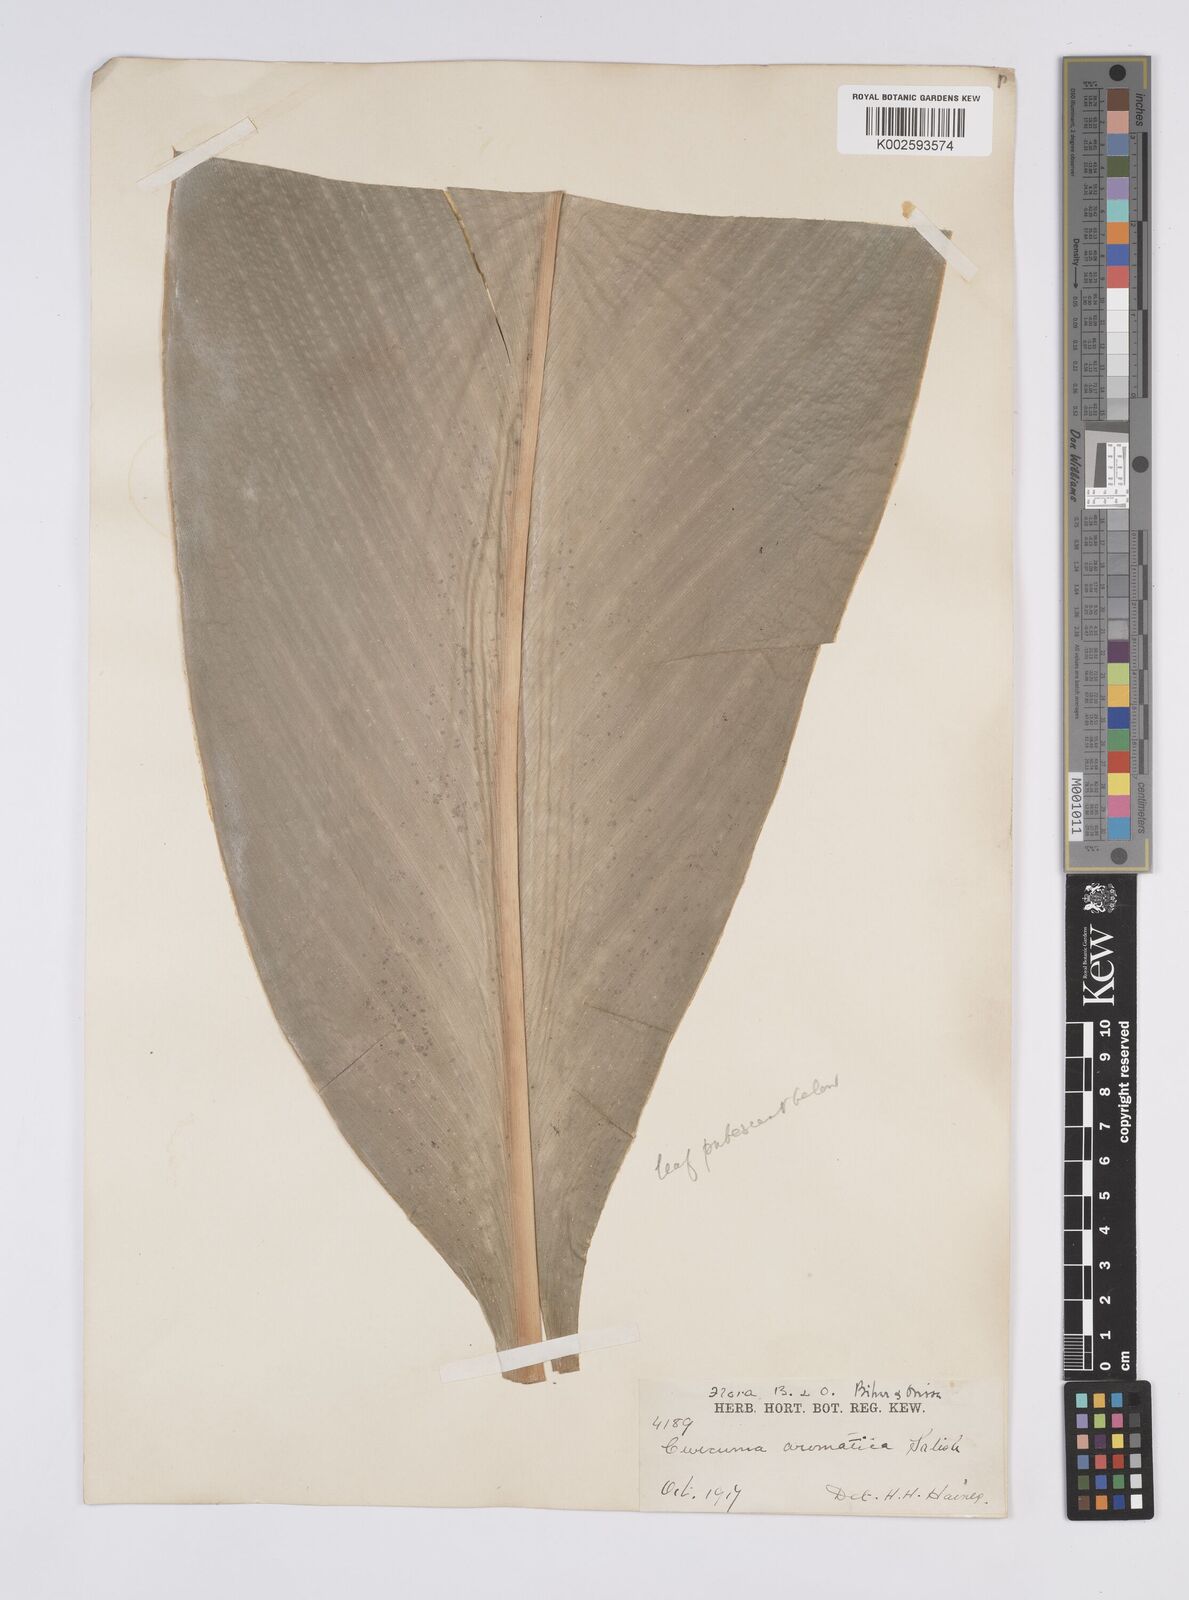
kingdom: Plantae
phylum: Tracheophyta
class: Liliopsida
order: Zingiberales
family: Zingiberaceae
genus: Curcuma
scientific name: Curcuma aromatica
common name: Wild turmeric
